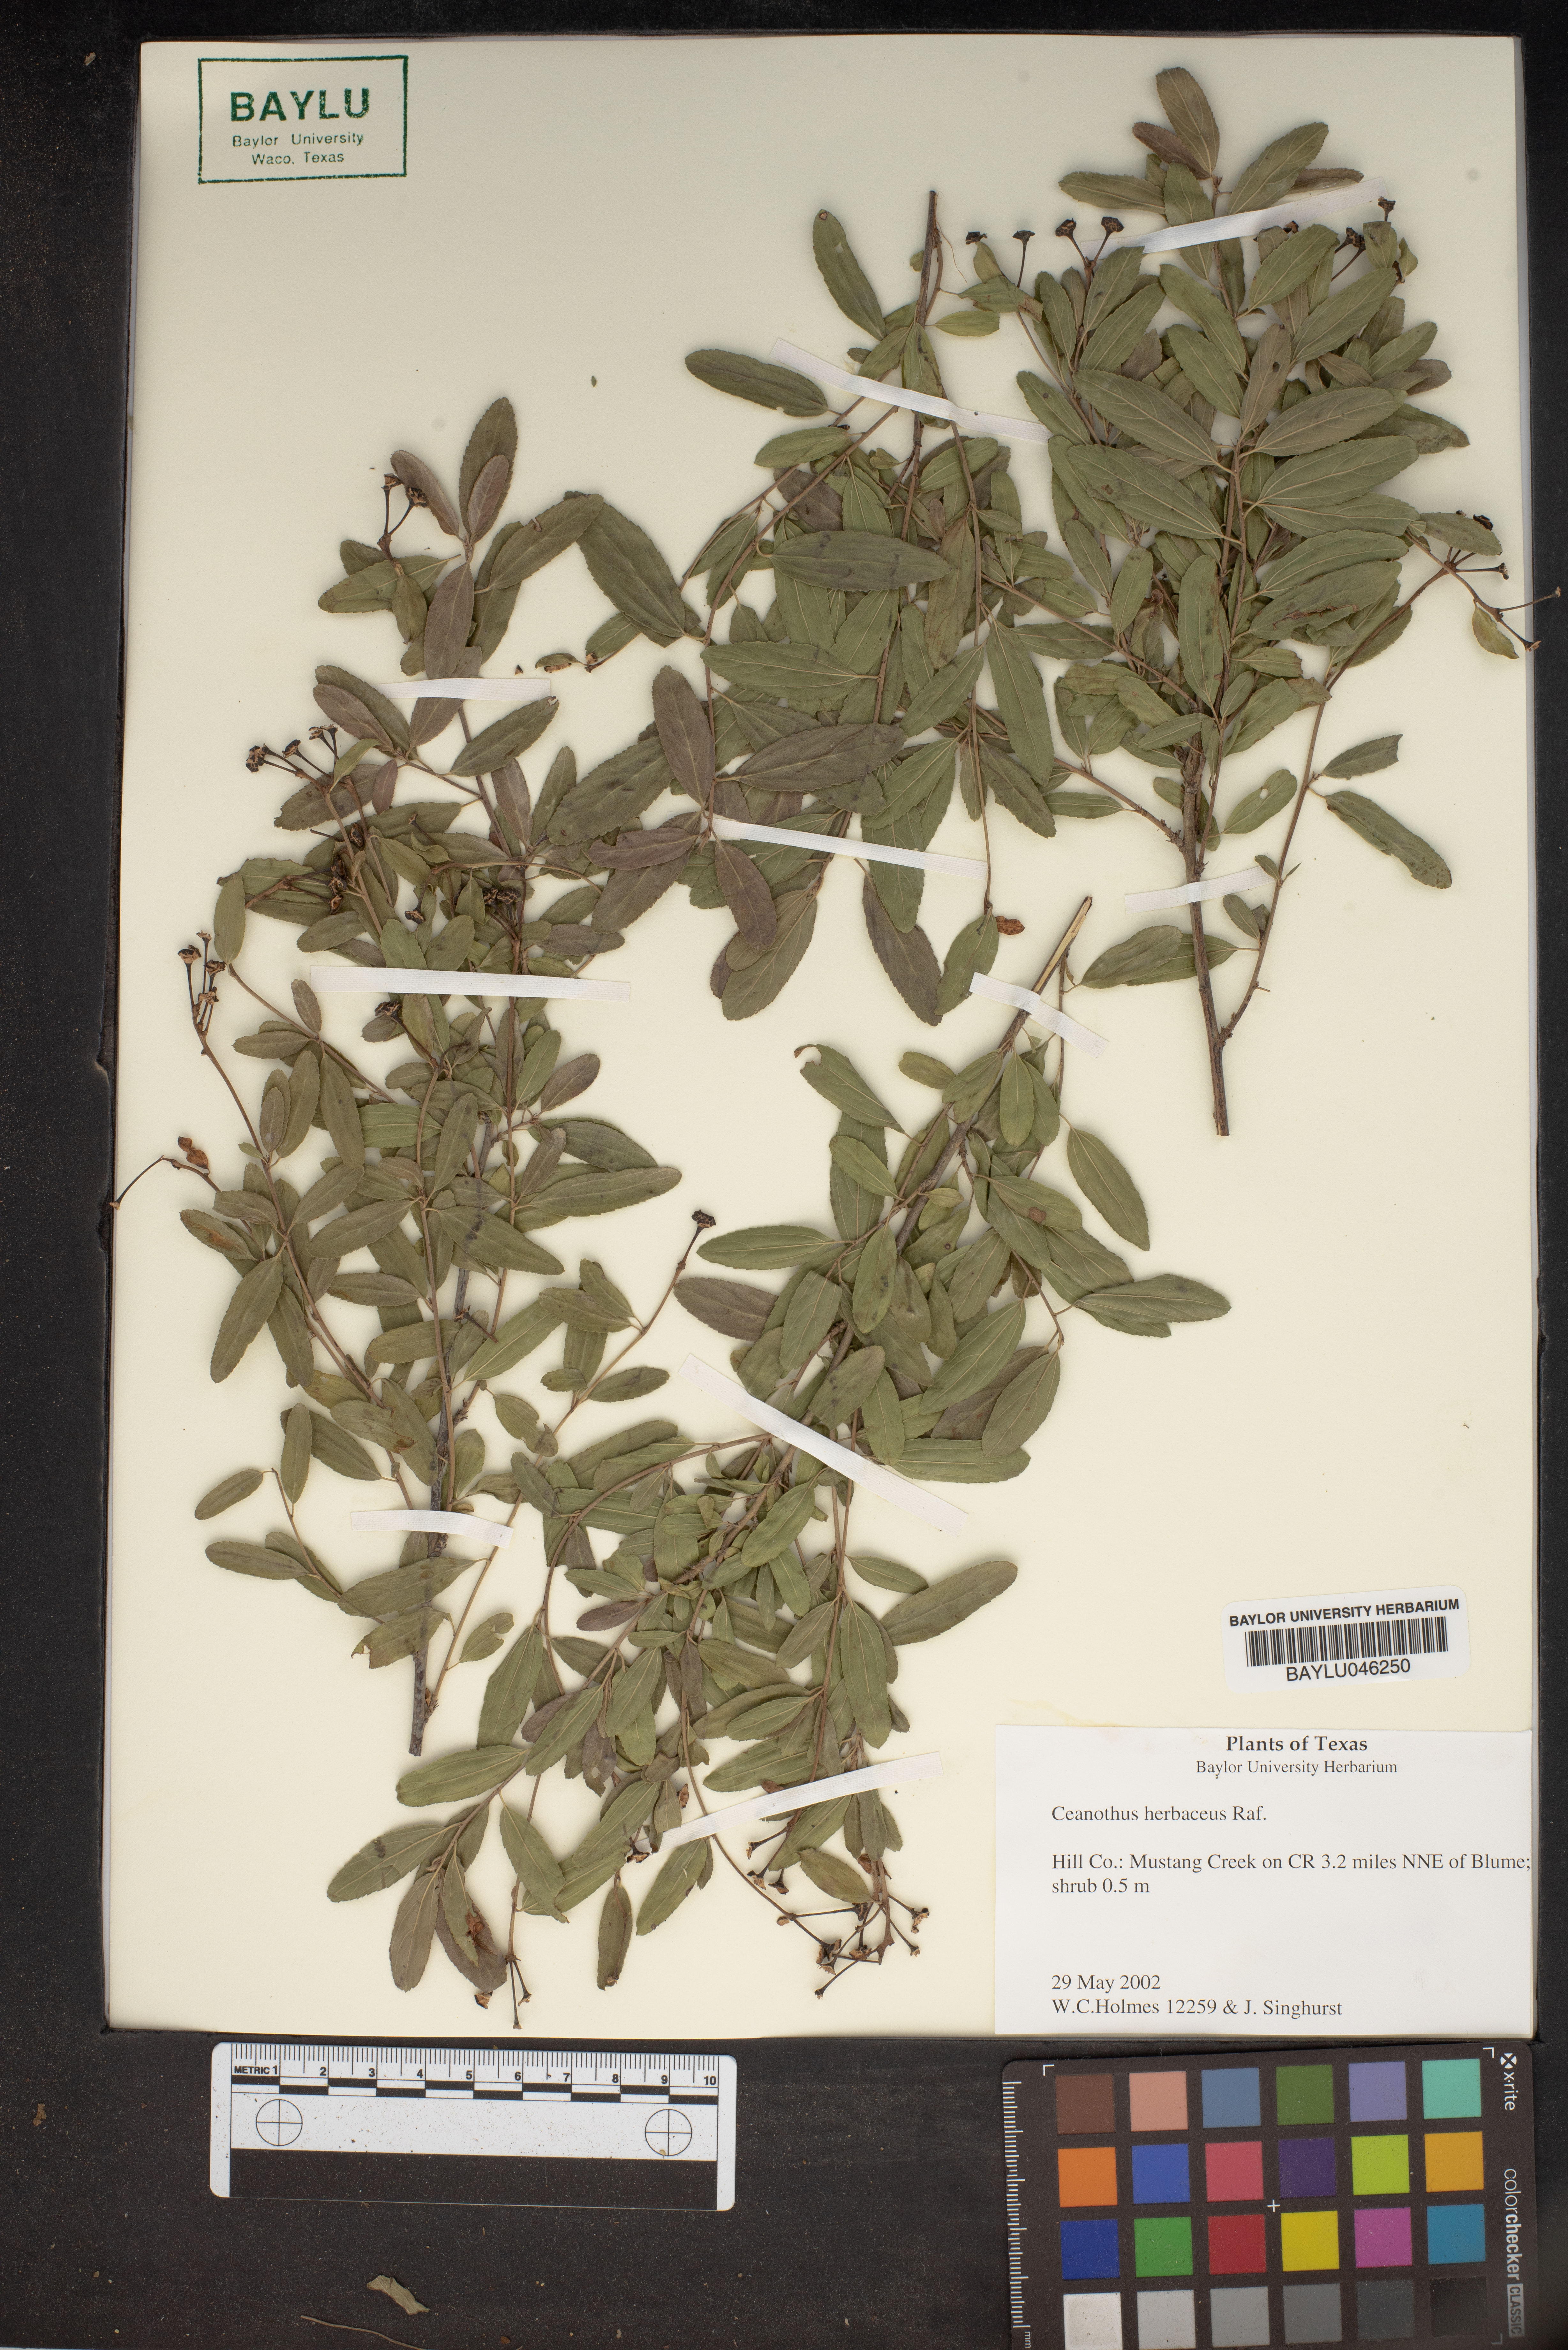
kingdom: Plantae
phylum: Tracheophyta
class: Magnoliopsida
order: Rosales
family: Rhamnaceae
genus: Ceanothus
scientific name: Ceanothus herbaceus
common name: Inland ceanothus
